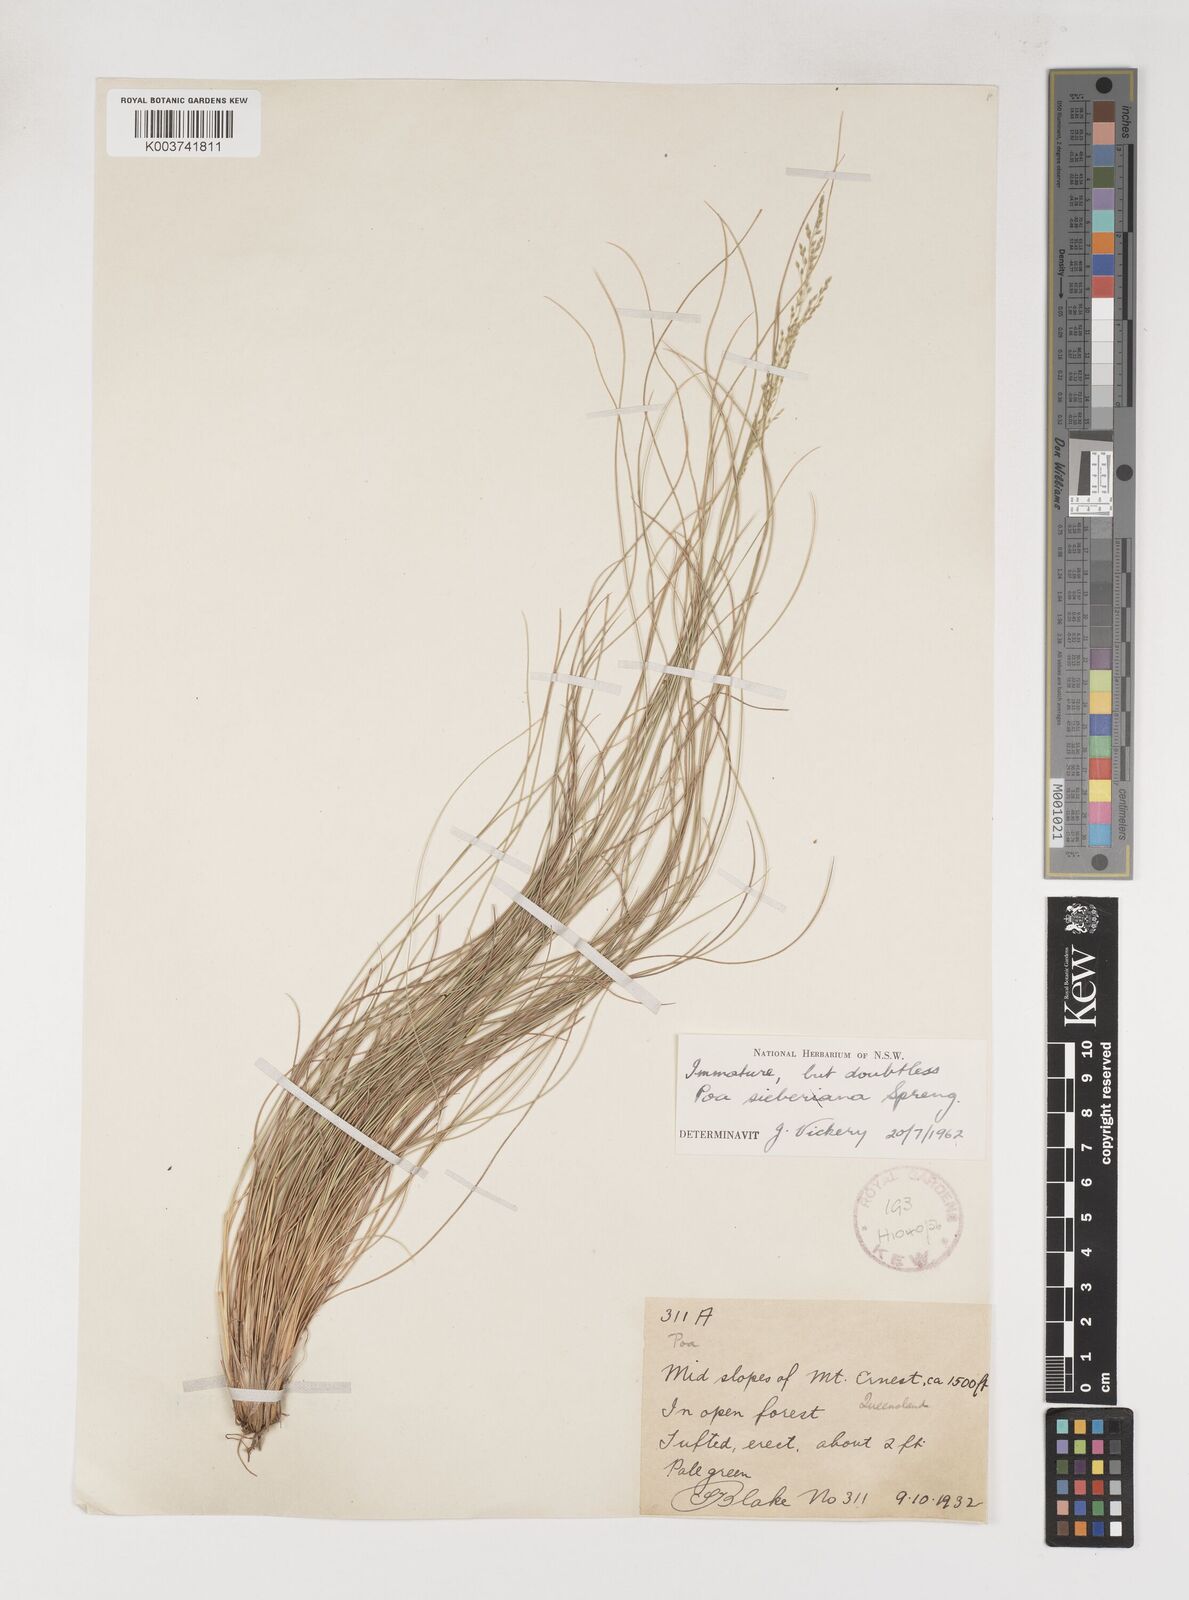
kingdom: Plantae
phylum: Tracheophyta
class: Liliopsida
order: Poales
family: Poaceae
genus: Poa
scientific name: Poa sieberiana
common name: Tussock poa
